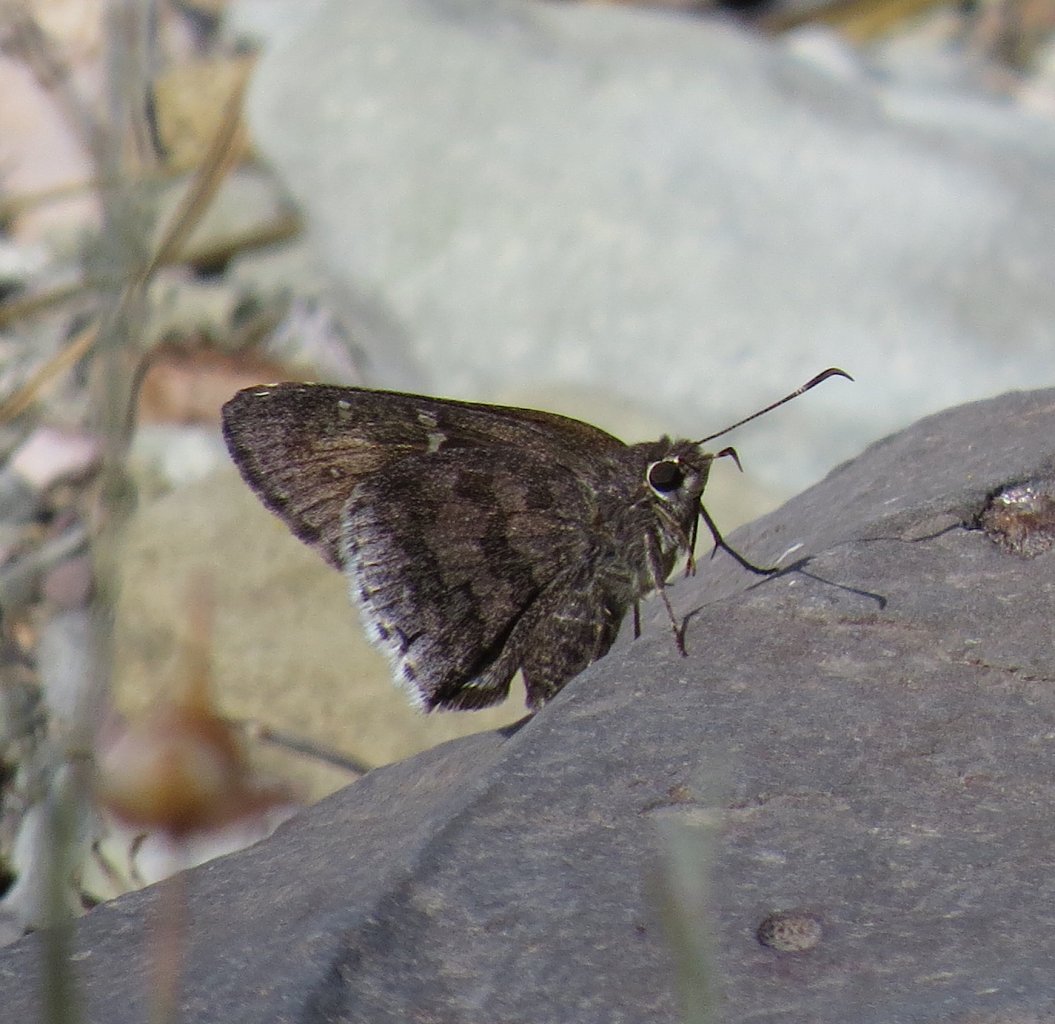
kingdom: Animalia
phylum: Arthropoda
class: Insecta
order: Lepidoptera
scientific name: Lepidoptera
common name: Butterflies
